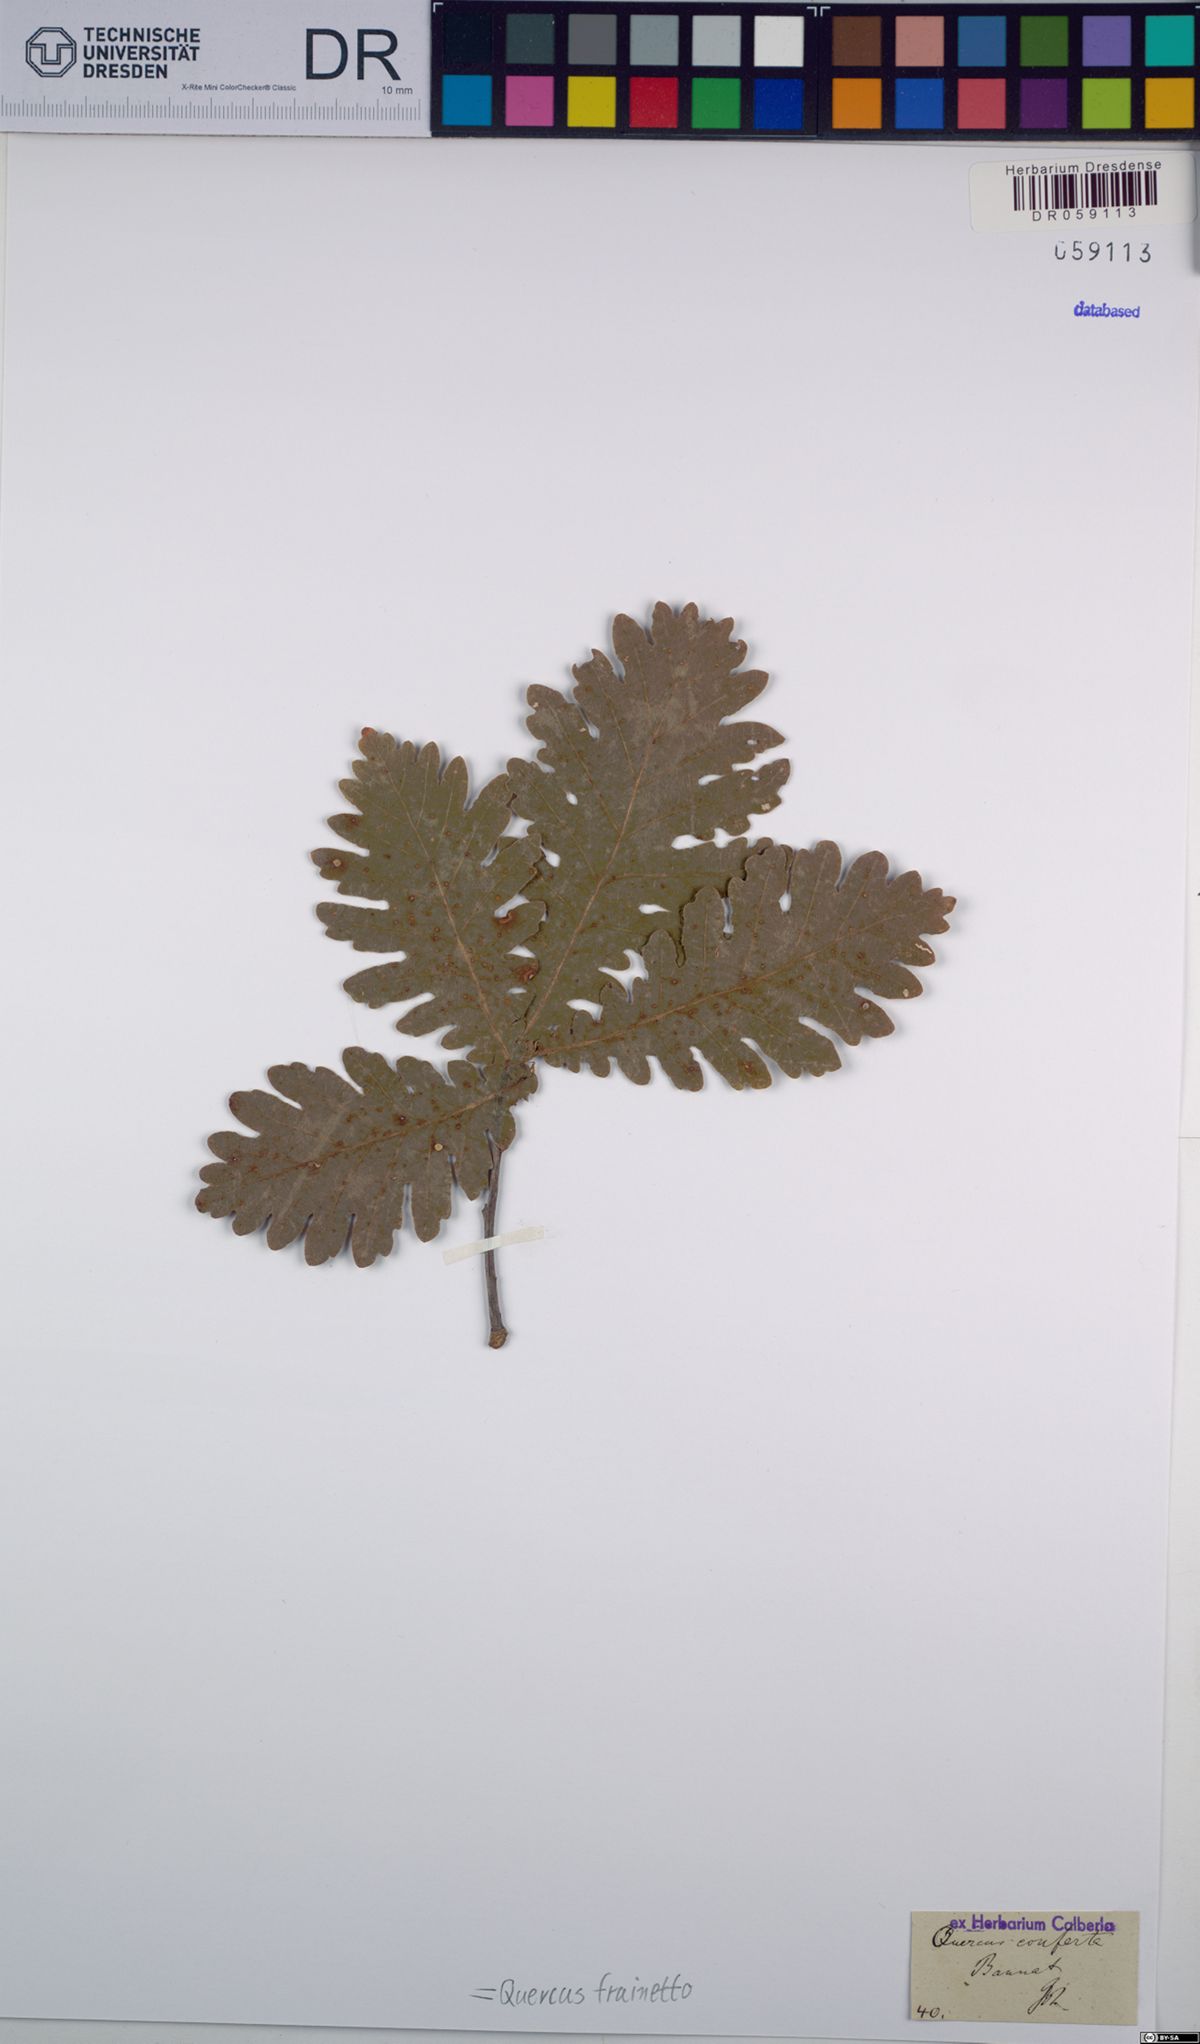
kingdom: Plantae
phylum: Tracheophyta
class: Magnoliopsida
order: Fagales
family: Fagaceae
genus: Quercus
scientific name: Quercus conferta
